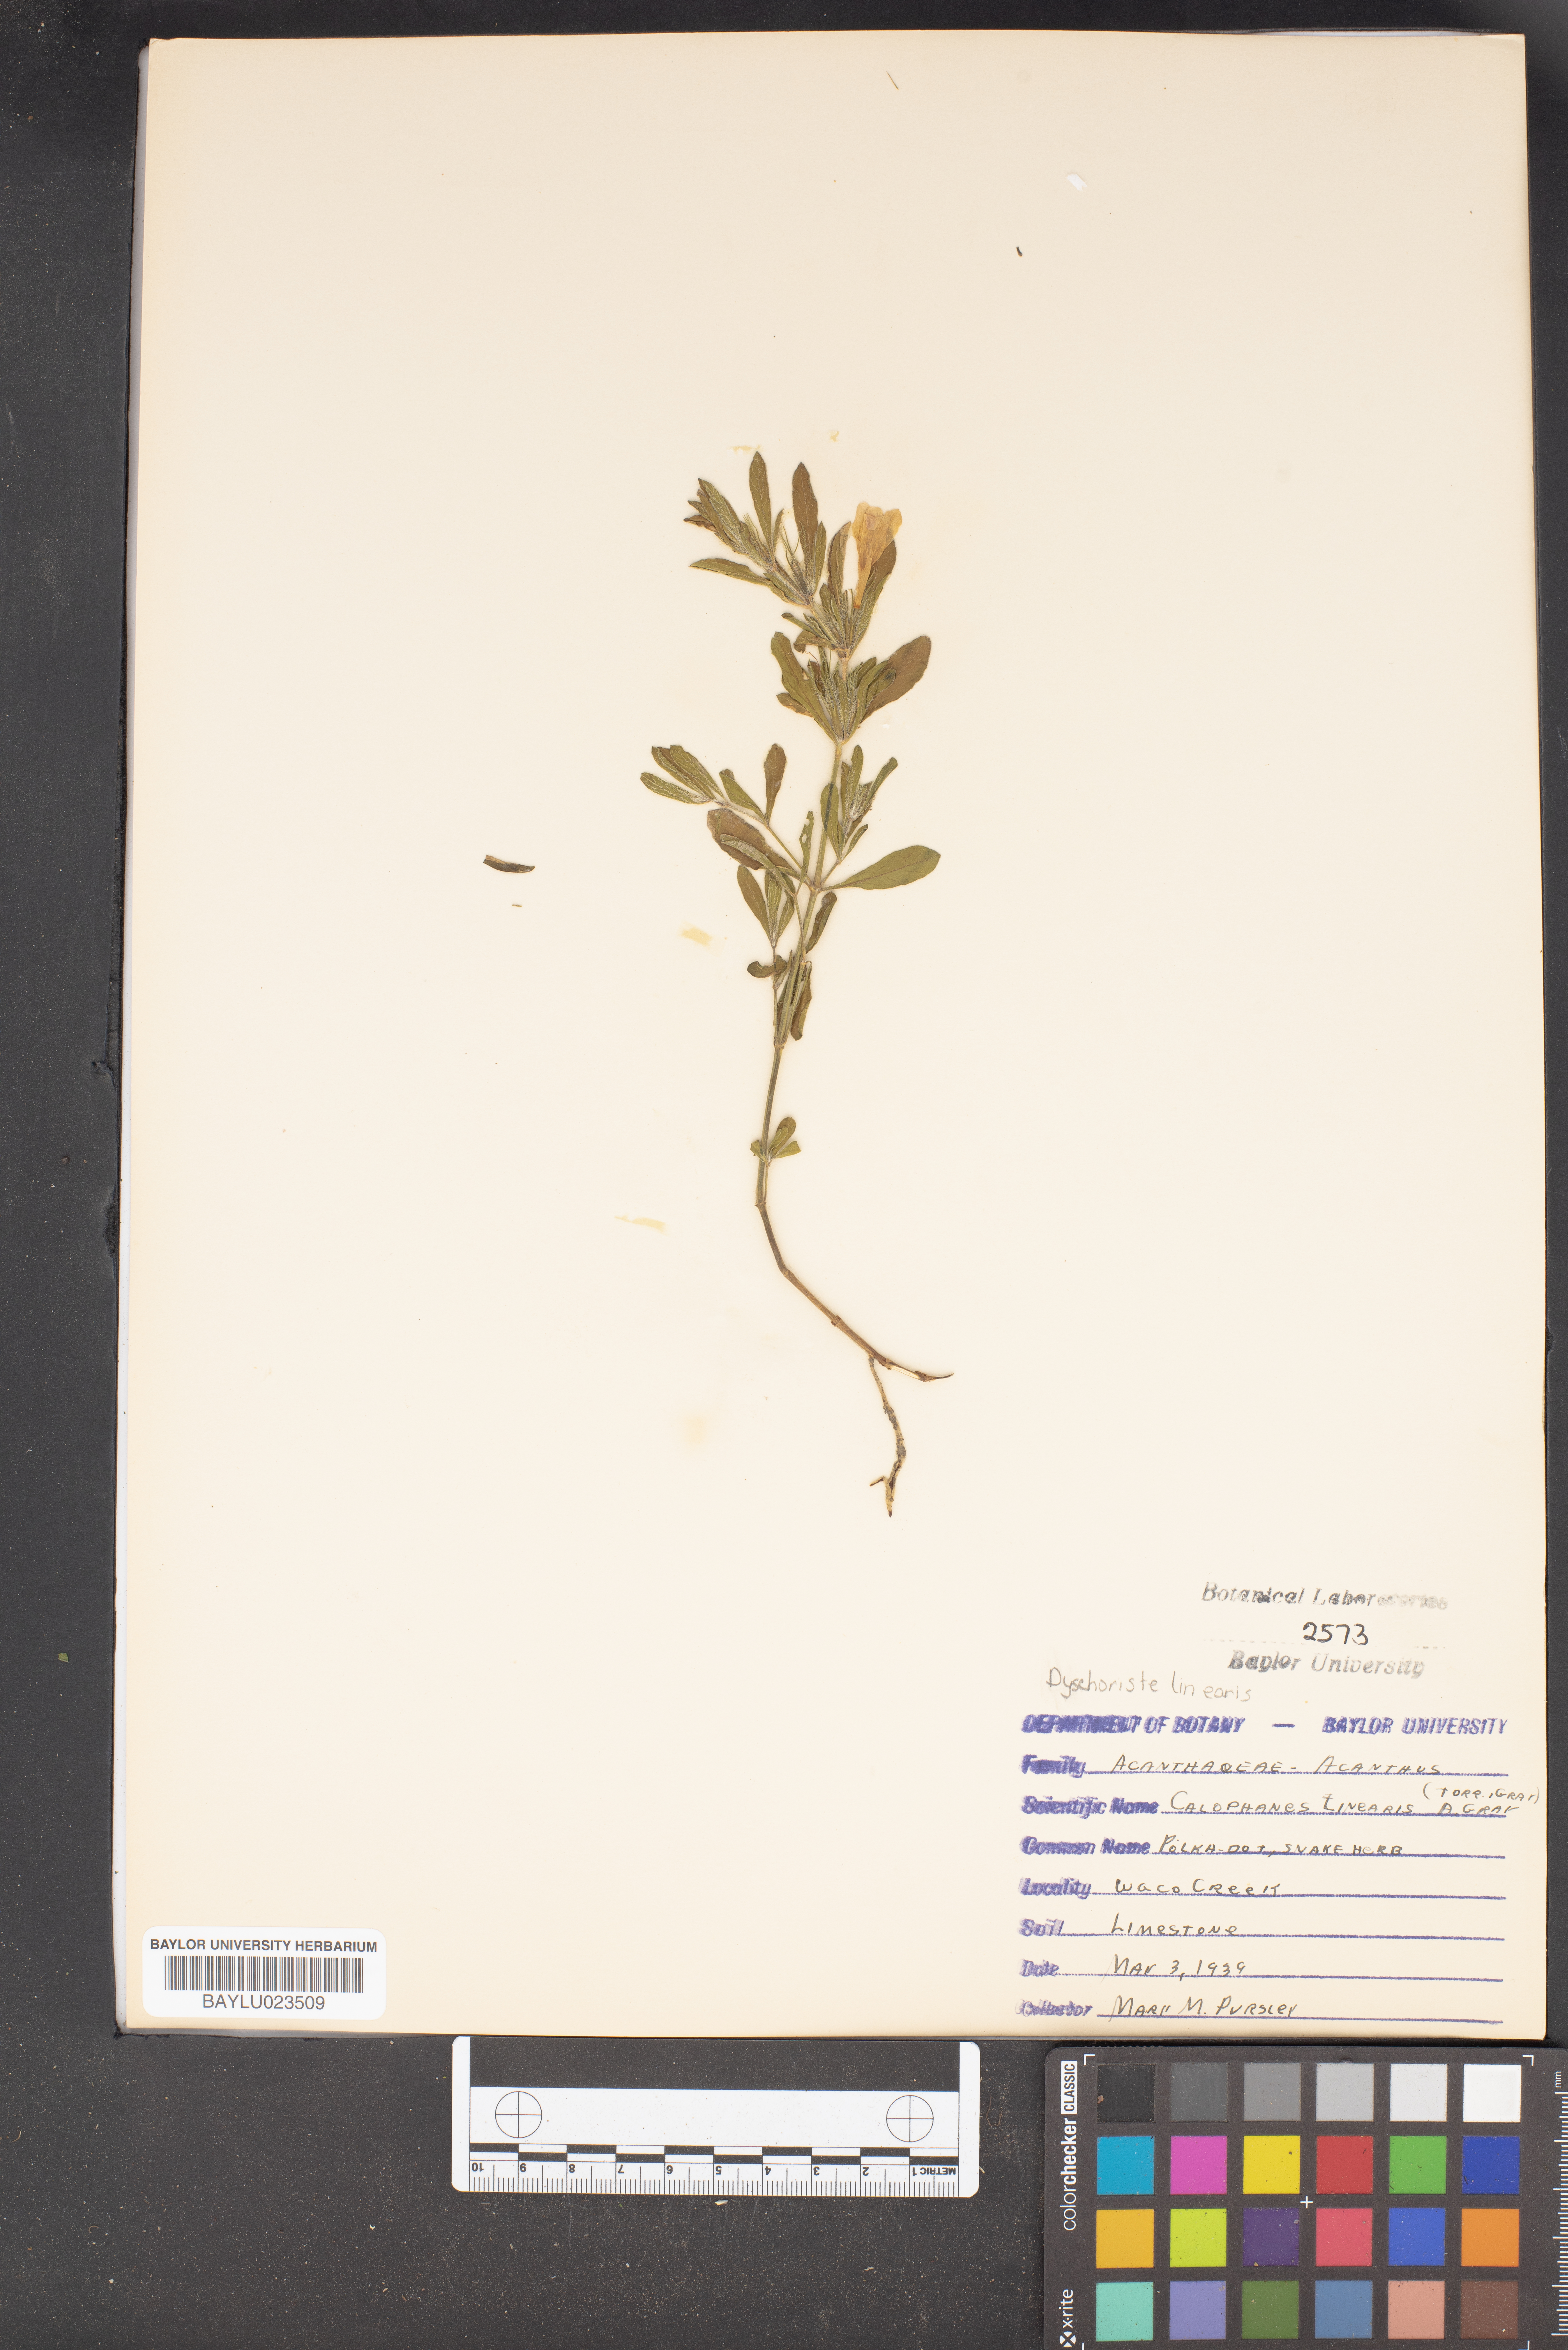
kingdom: Plantae
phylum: Tracheophyta
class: Magnoliopsida
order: Lamiales
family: Acanthaceae
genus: Dyschoriste
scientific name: Dyschoriste linearis
